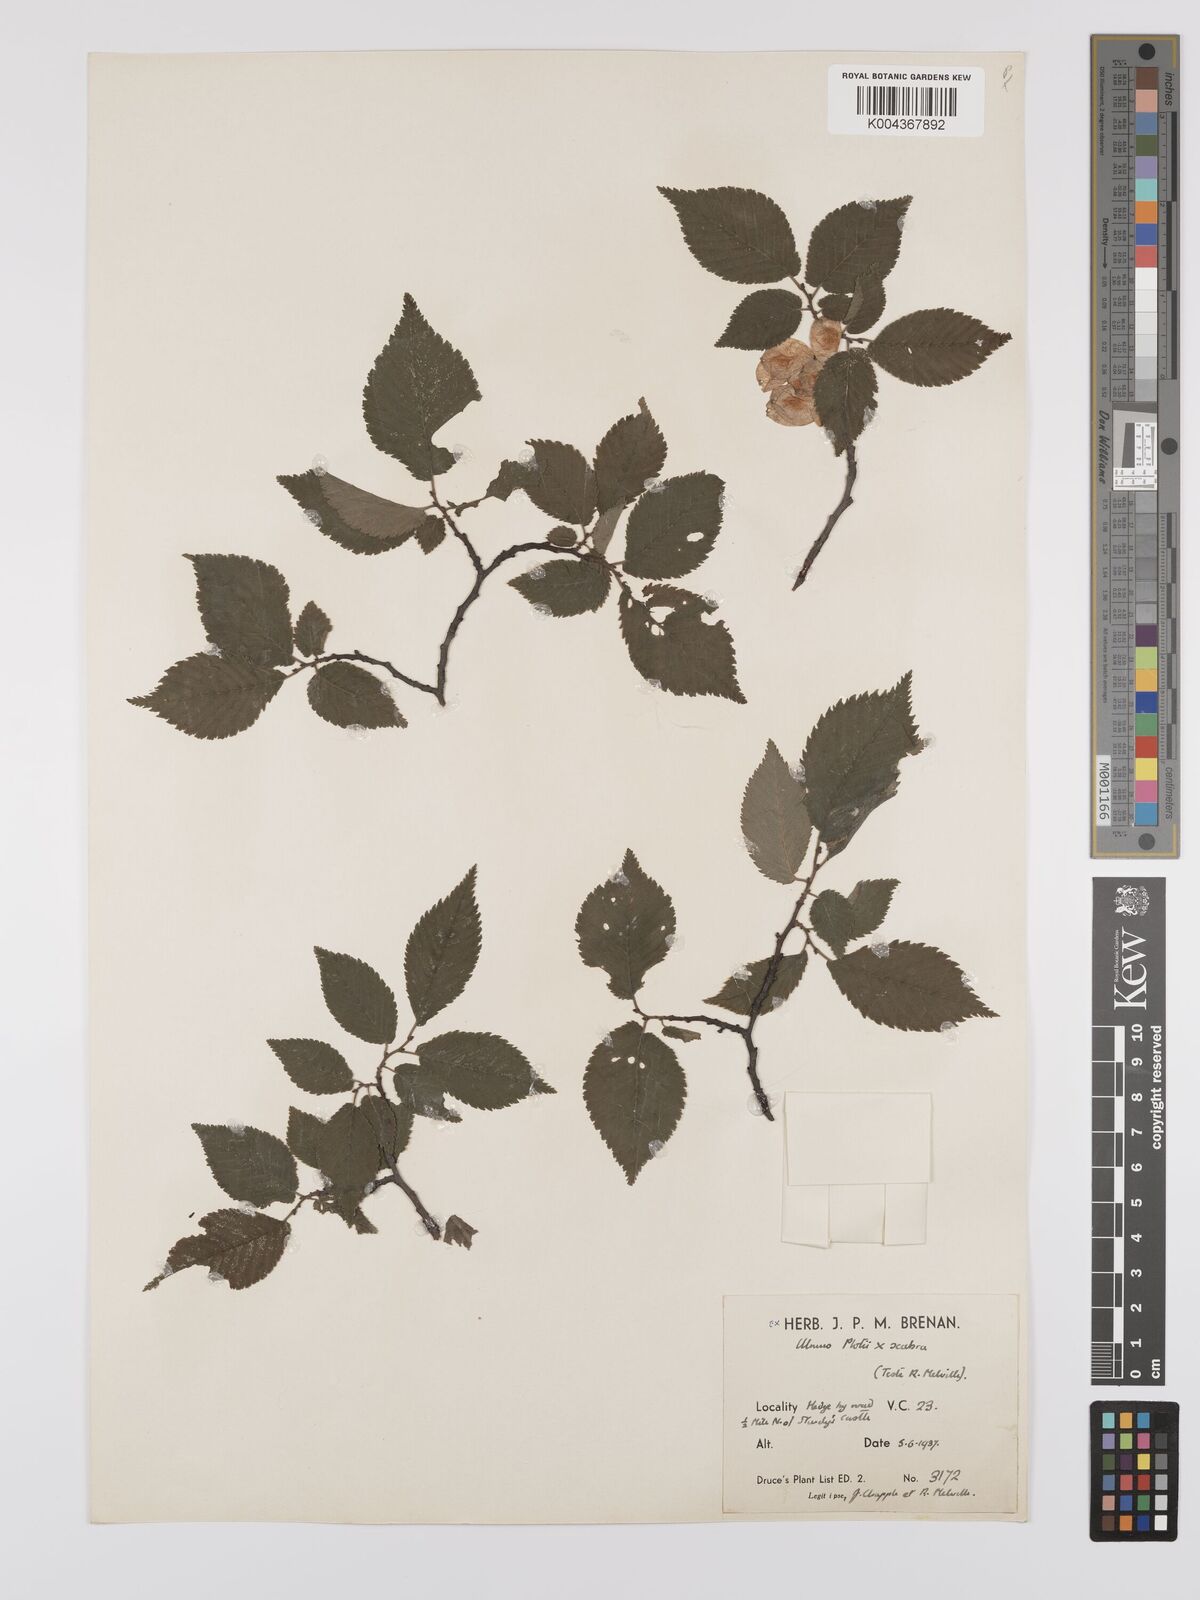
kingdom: Plantae
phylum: Tracheophyta
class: Magnoliopsida
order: Rosales
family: Ulmaceae
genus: Ulmus
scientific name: Ulmus glabra
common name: Wych elm
